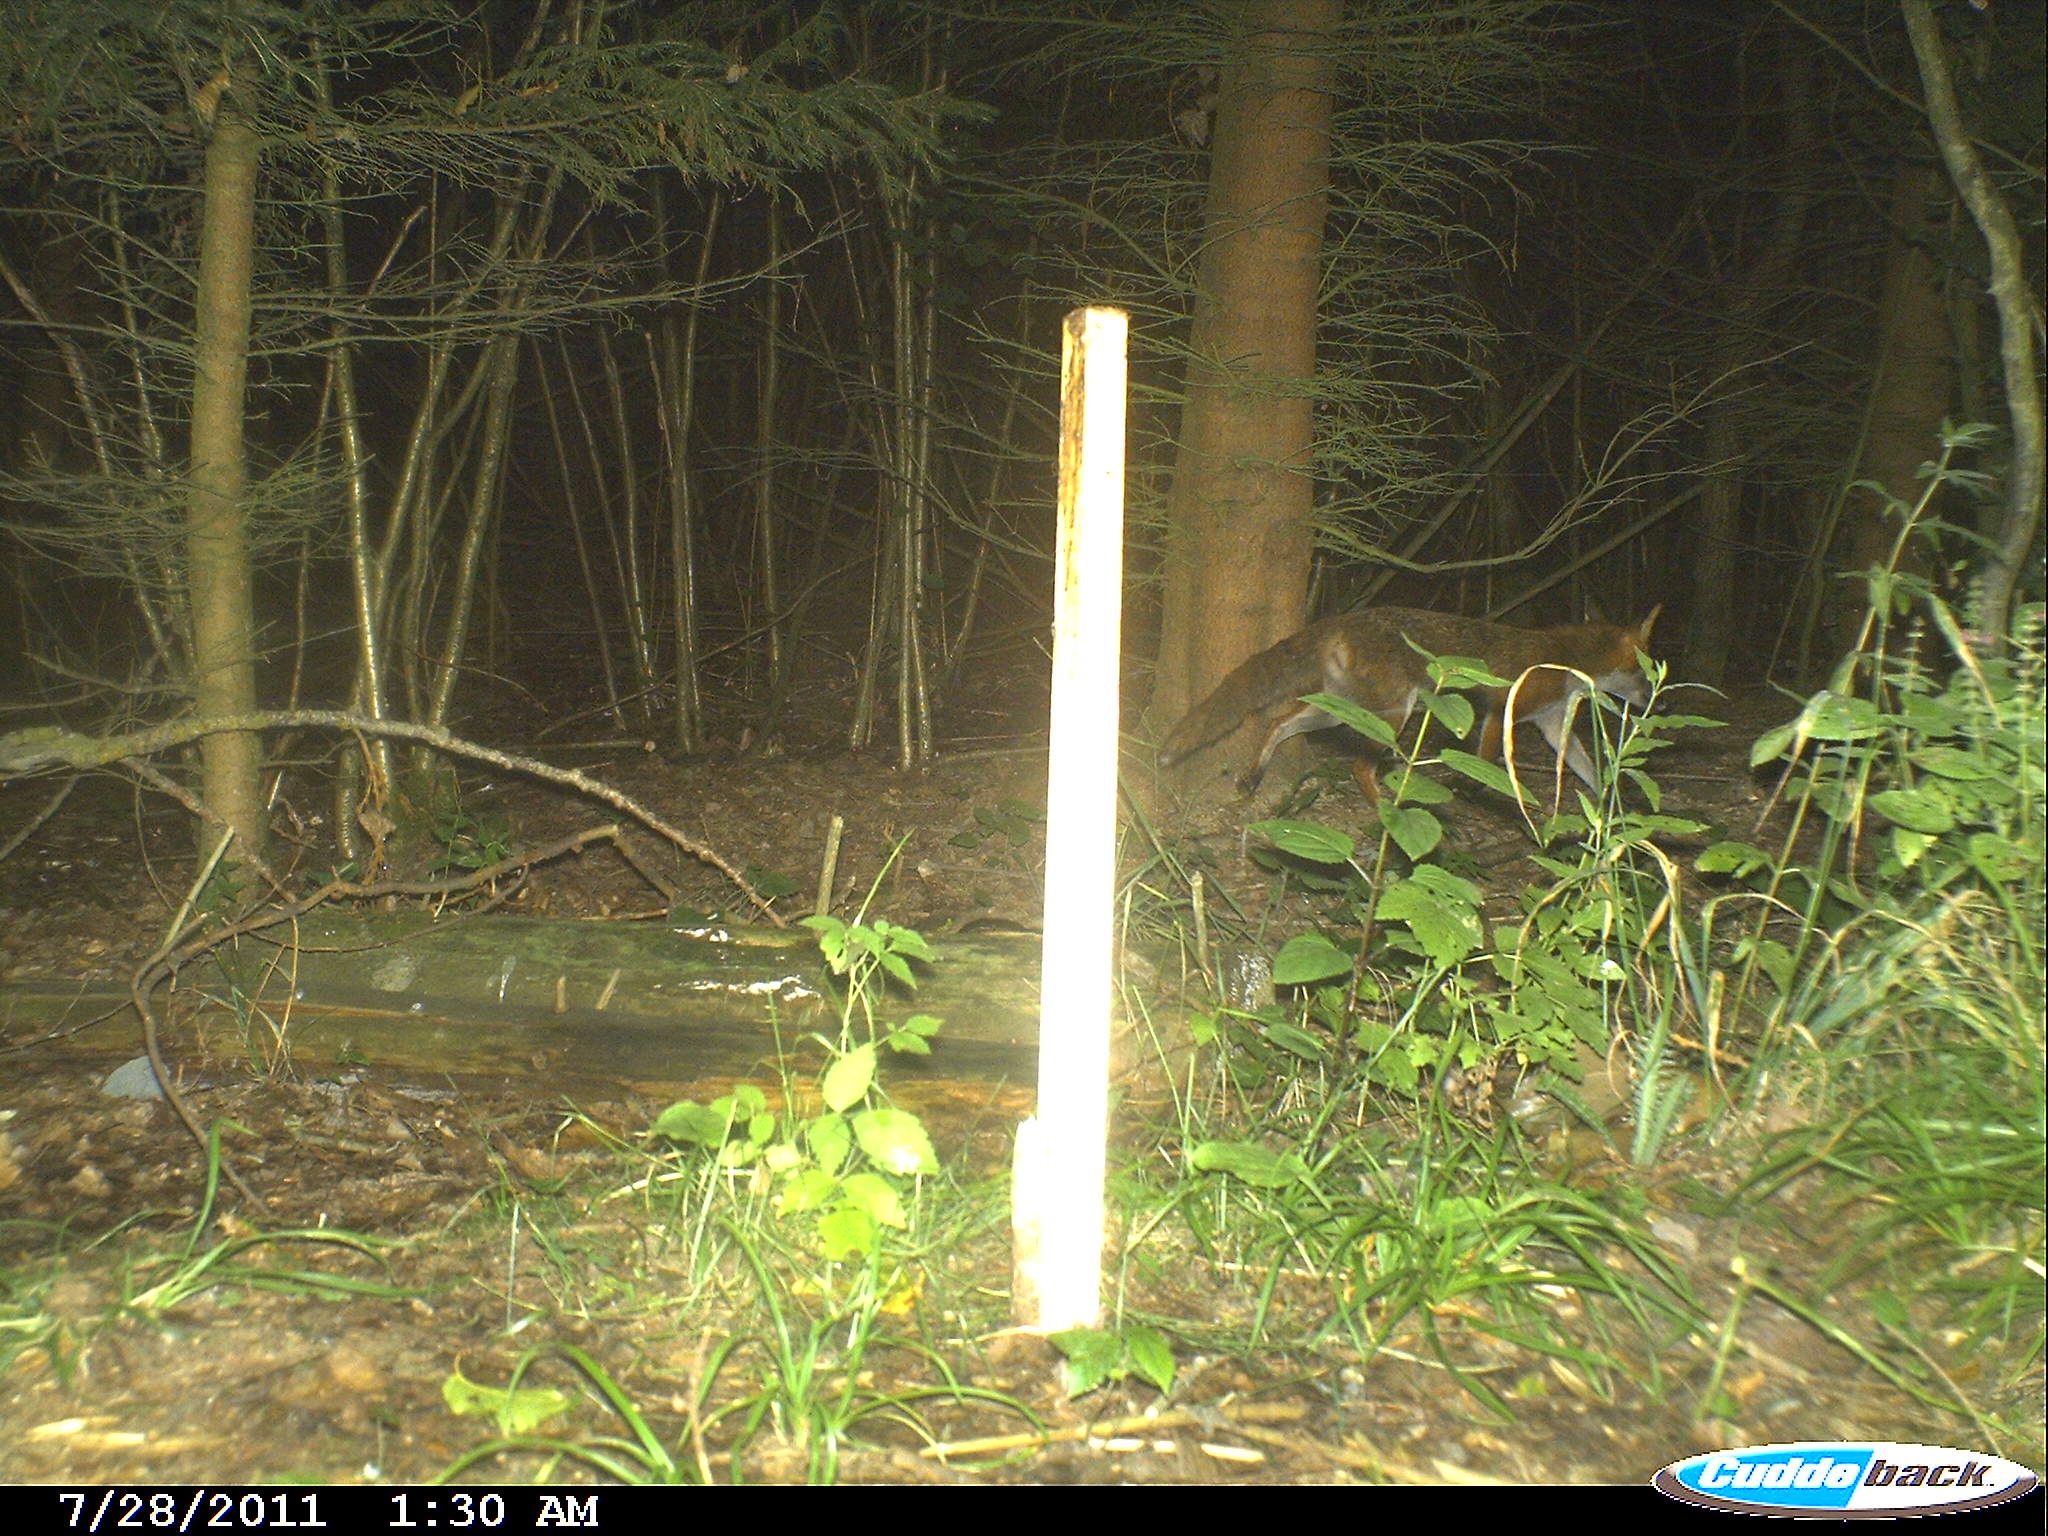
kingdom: Animalia
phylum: Chordata
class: Mammalia
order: Carnivora
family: Canidae
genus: Vulpes
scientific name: Vulpes vulpes
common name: Red fox
